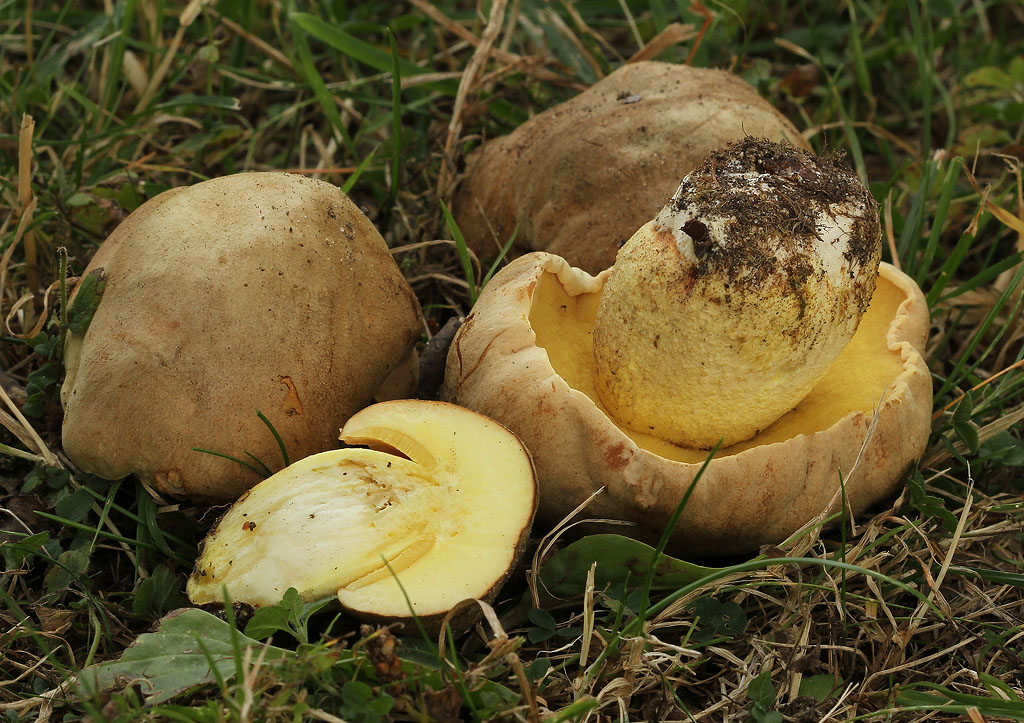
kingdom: Fungi
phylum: Basidiomycota
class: Agaricomycetes
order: Boletales
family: Boletaceae
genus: Hemileccinum
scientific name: Hemileccinum impolitum
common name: bleg rørhat
